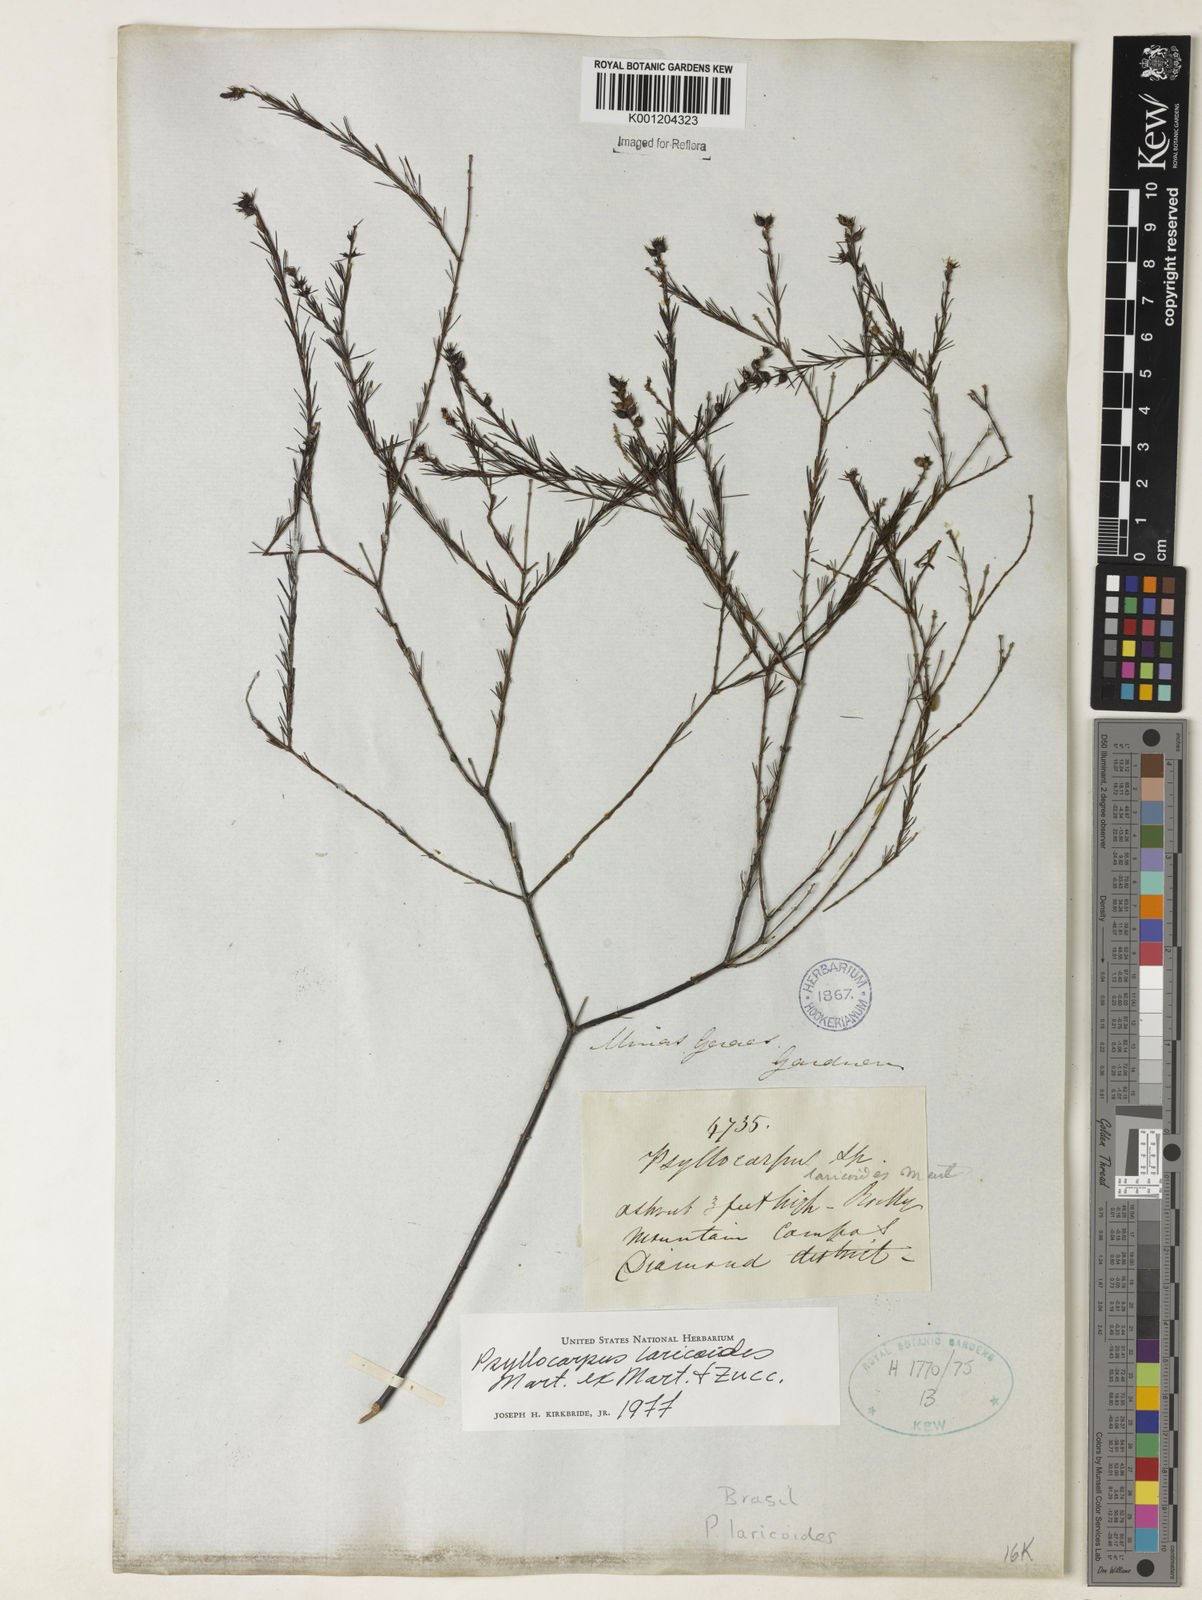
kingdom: Plantae
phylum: Tracheophyta
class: Magnoliopsida
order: Gentianales
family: Rubiaceae
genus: Psyllocarpus
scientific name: Psyllocarpus laricoides
